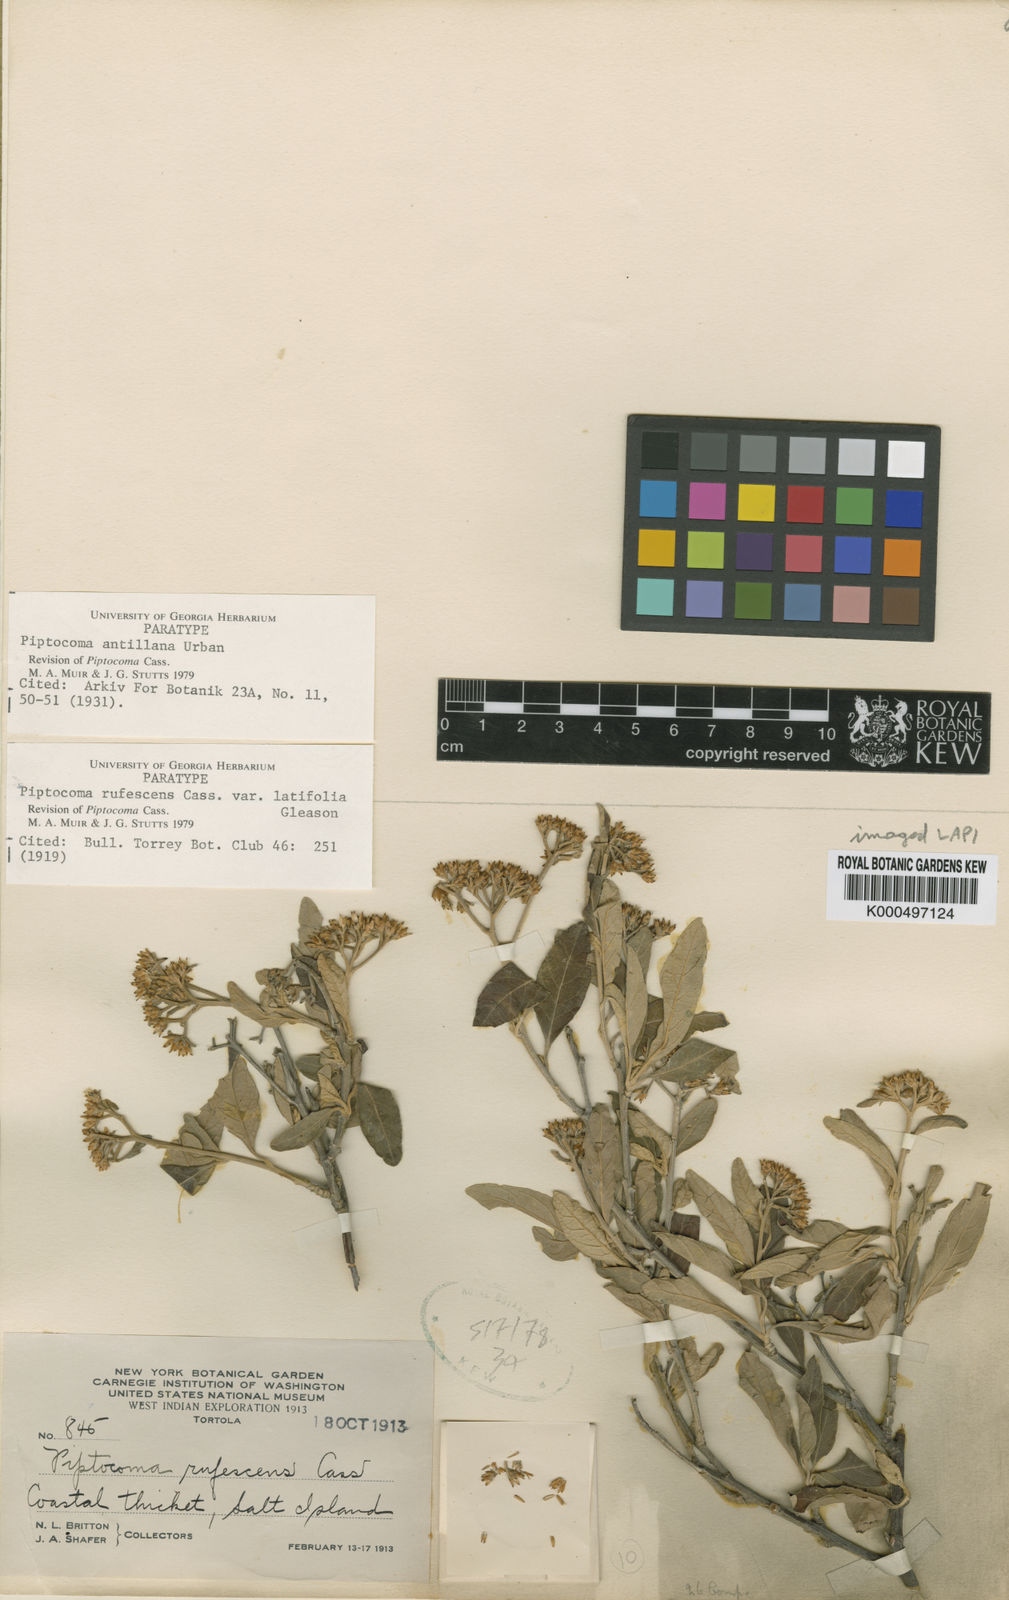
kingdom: Plantae
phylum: Tracheophyta
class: Magnoliopsida
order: Asterales
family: Asteraceae
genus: Piptocoma
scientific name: Piptocoma antillana
